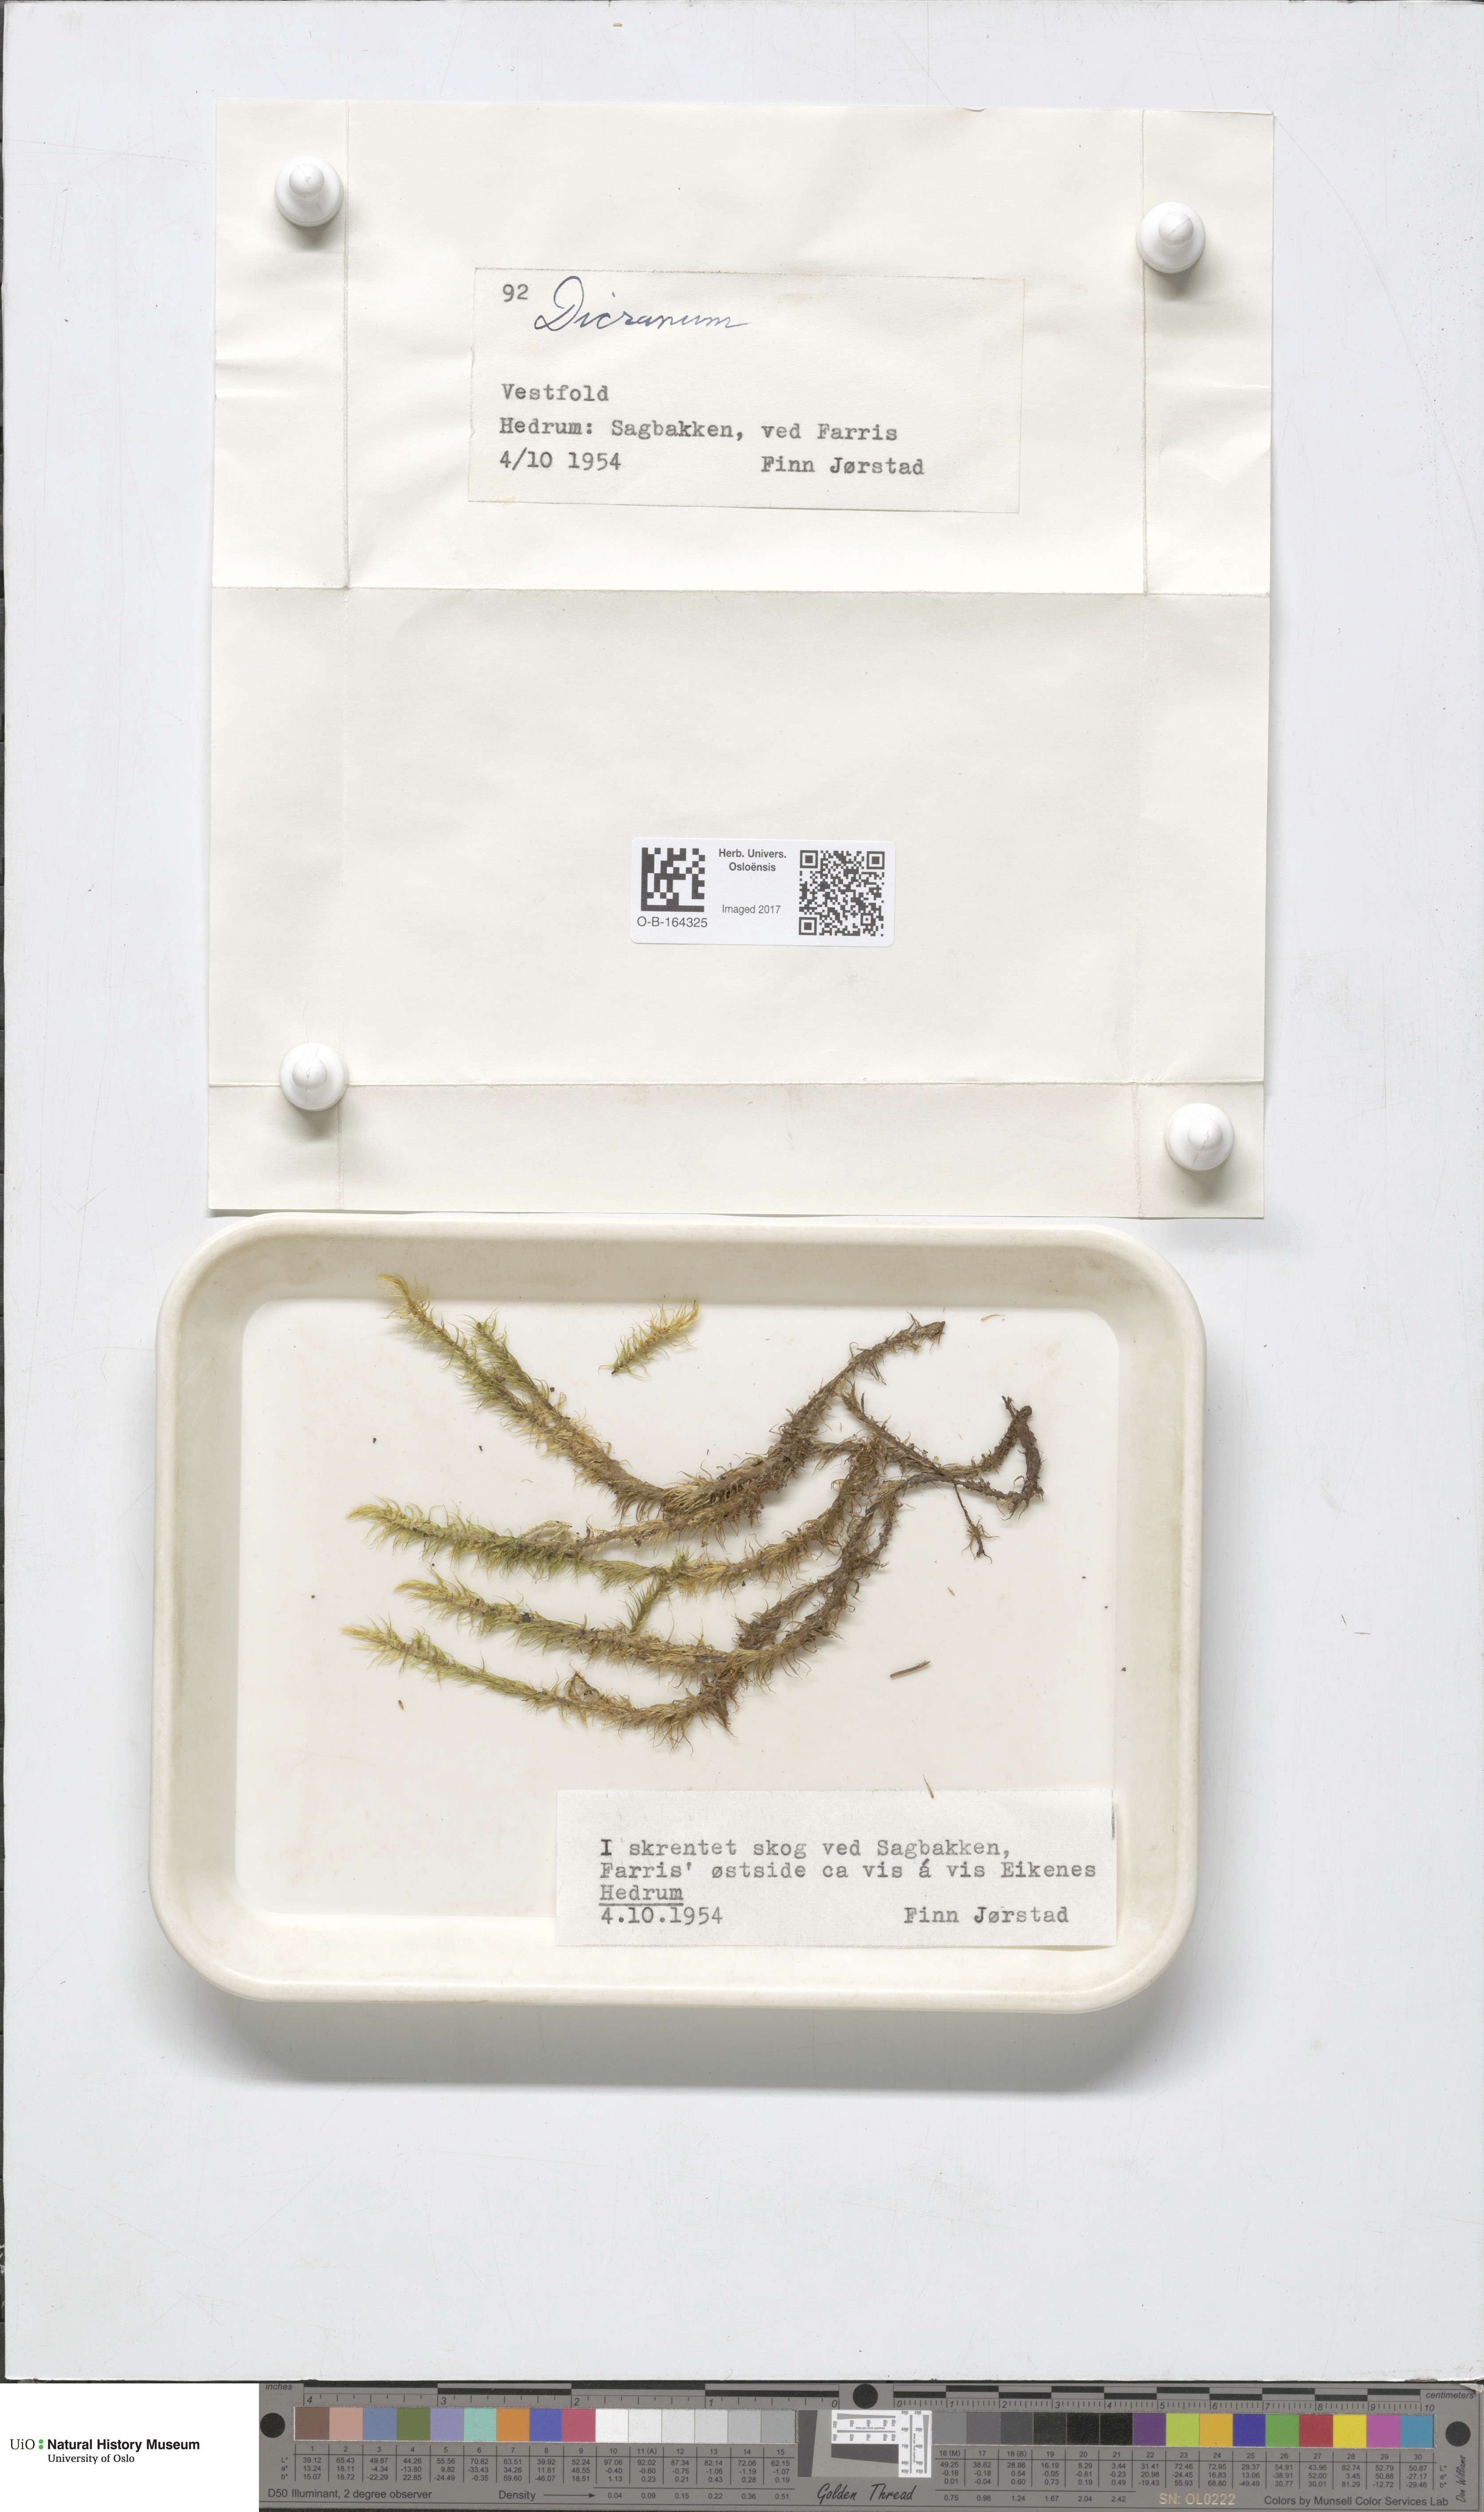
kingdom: Plantae
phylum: Bryophyta
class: Bryopsida
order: Dicranales
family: Dicranaceae
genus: Dicranum
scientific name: Dicranum
